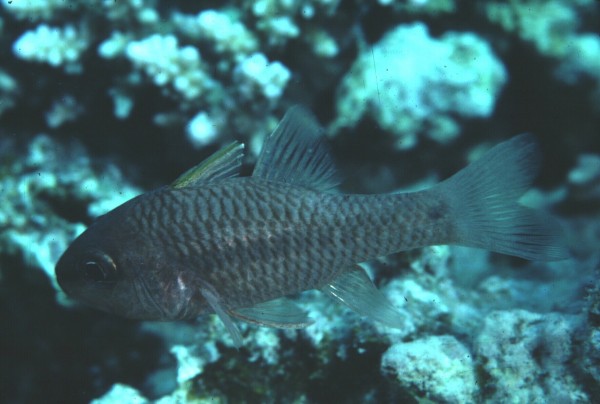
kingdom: Animalia
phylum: Chordata
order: Perciformes
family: Apogonidae
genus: Pristiapogon
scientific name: Pristiapogon kallopterus
